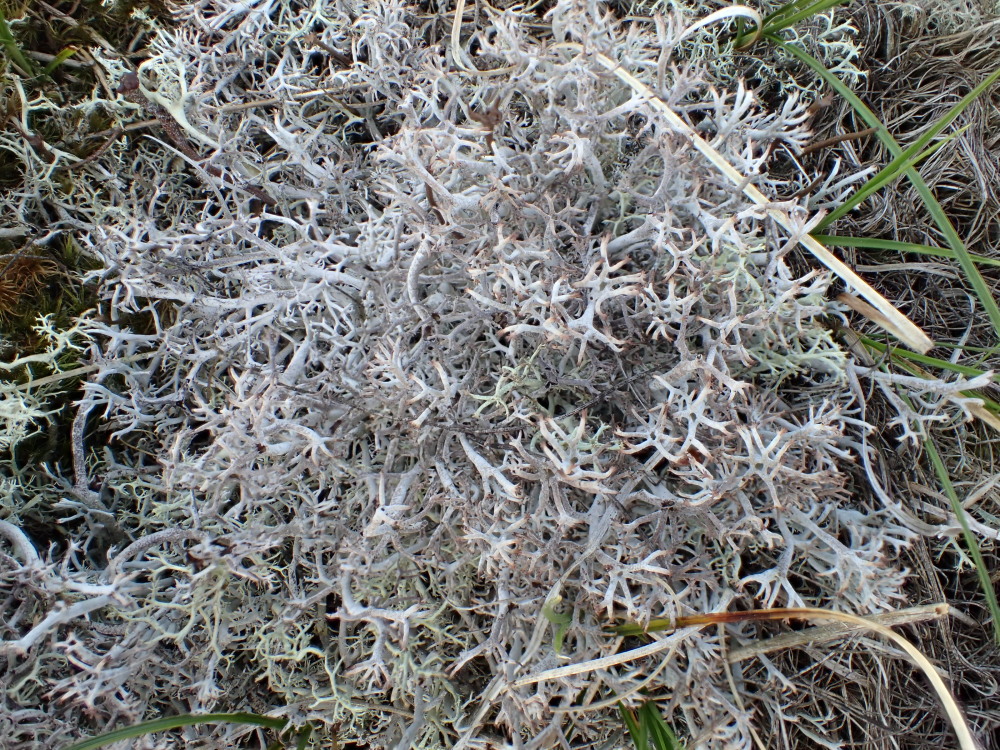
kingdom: Fungi
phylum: Ascomycota
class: Lecanoromycetes
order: Lecanorales
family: Cladoniaceae
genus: Cladonia
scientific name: Cladonia rangiferina
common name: askegrå rensdyrlav
